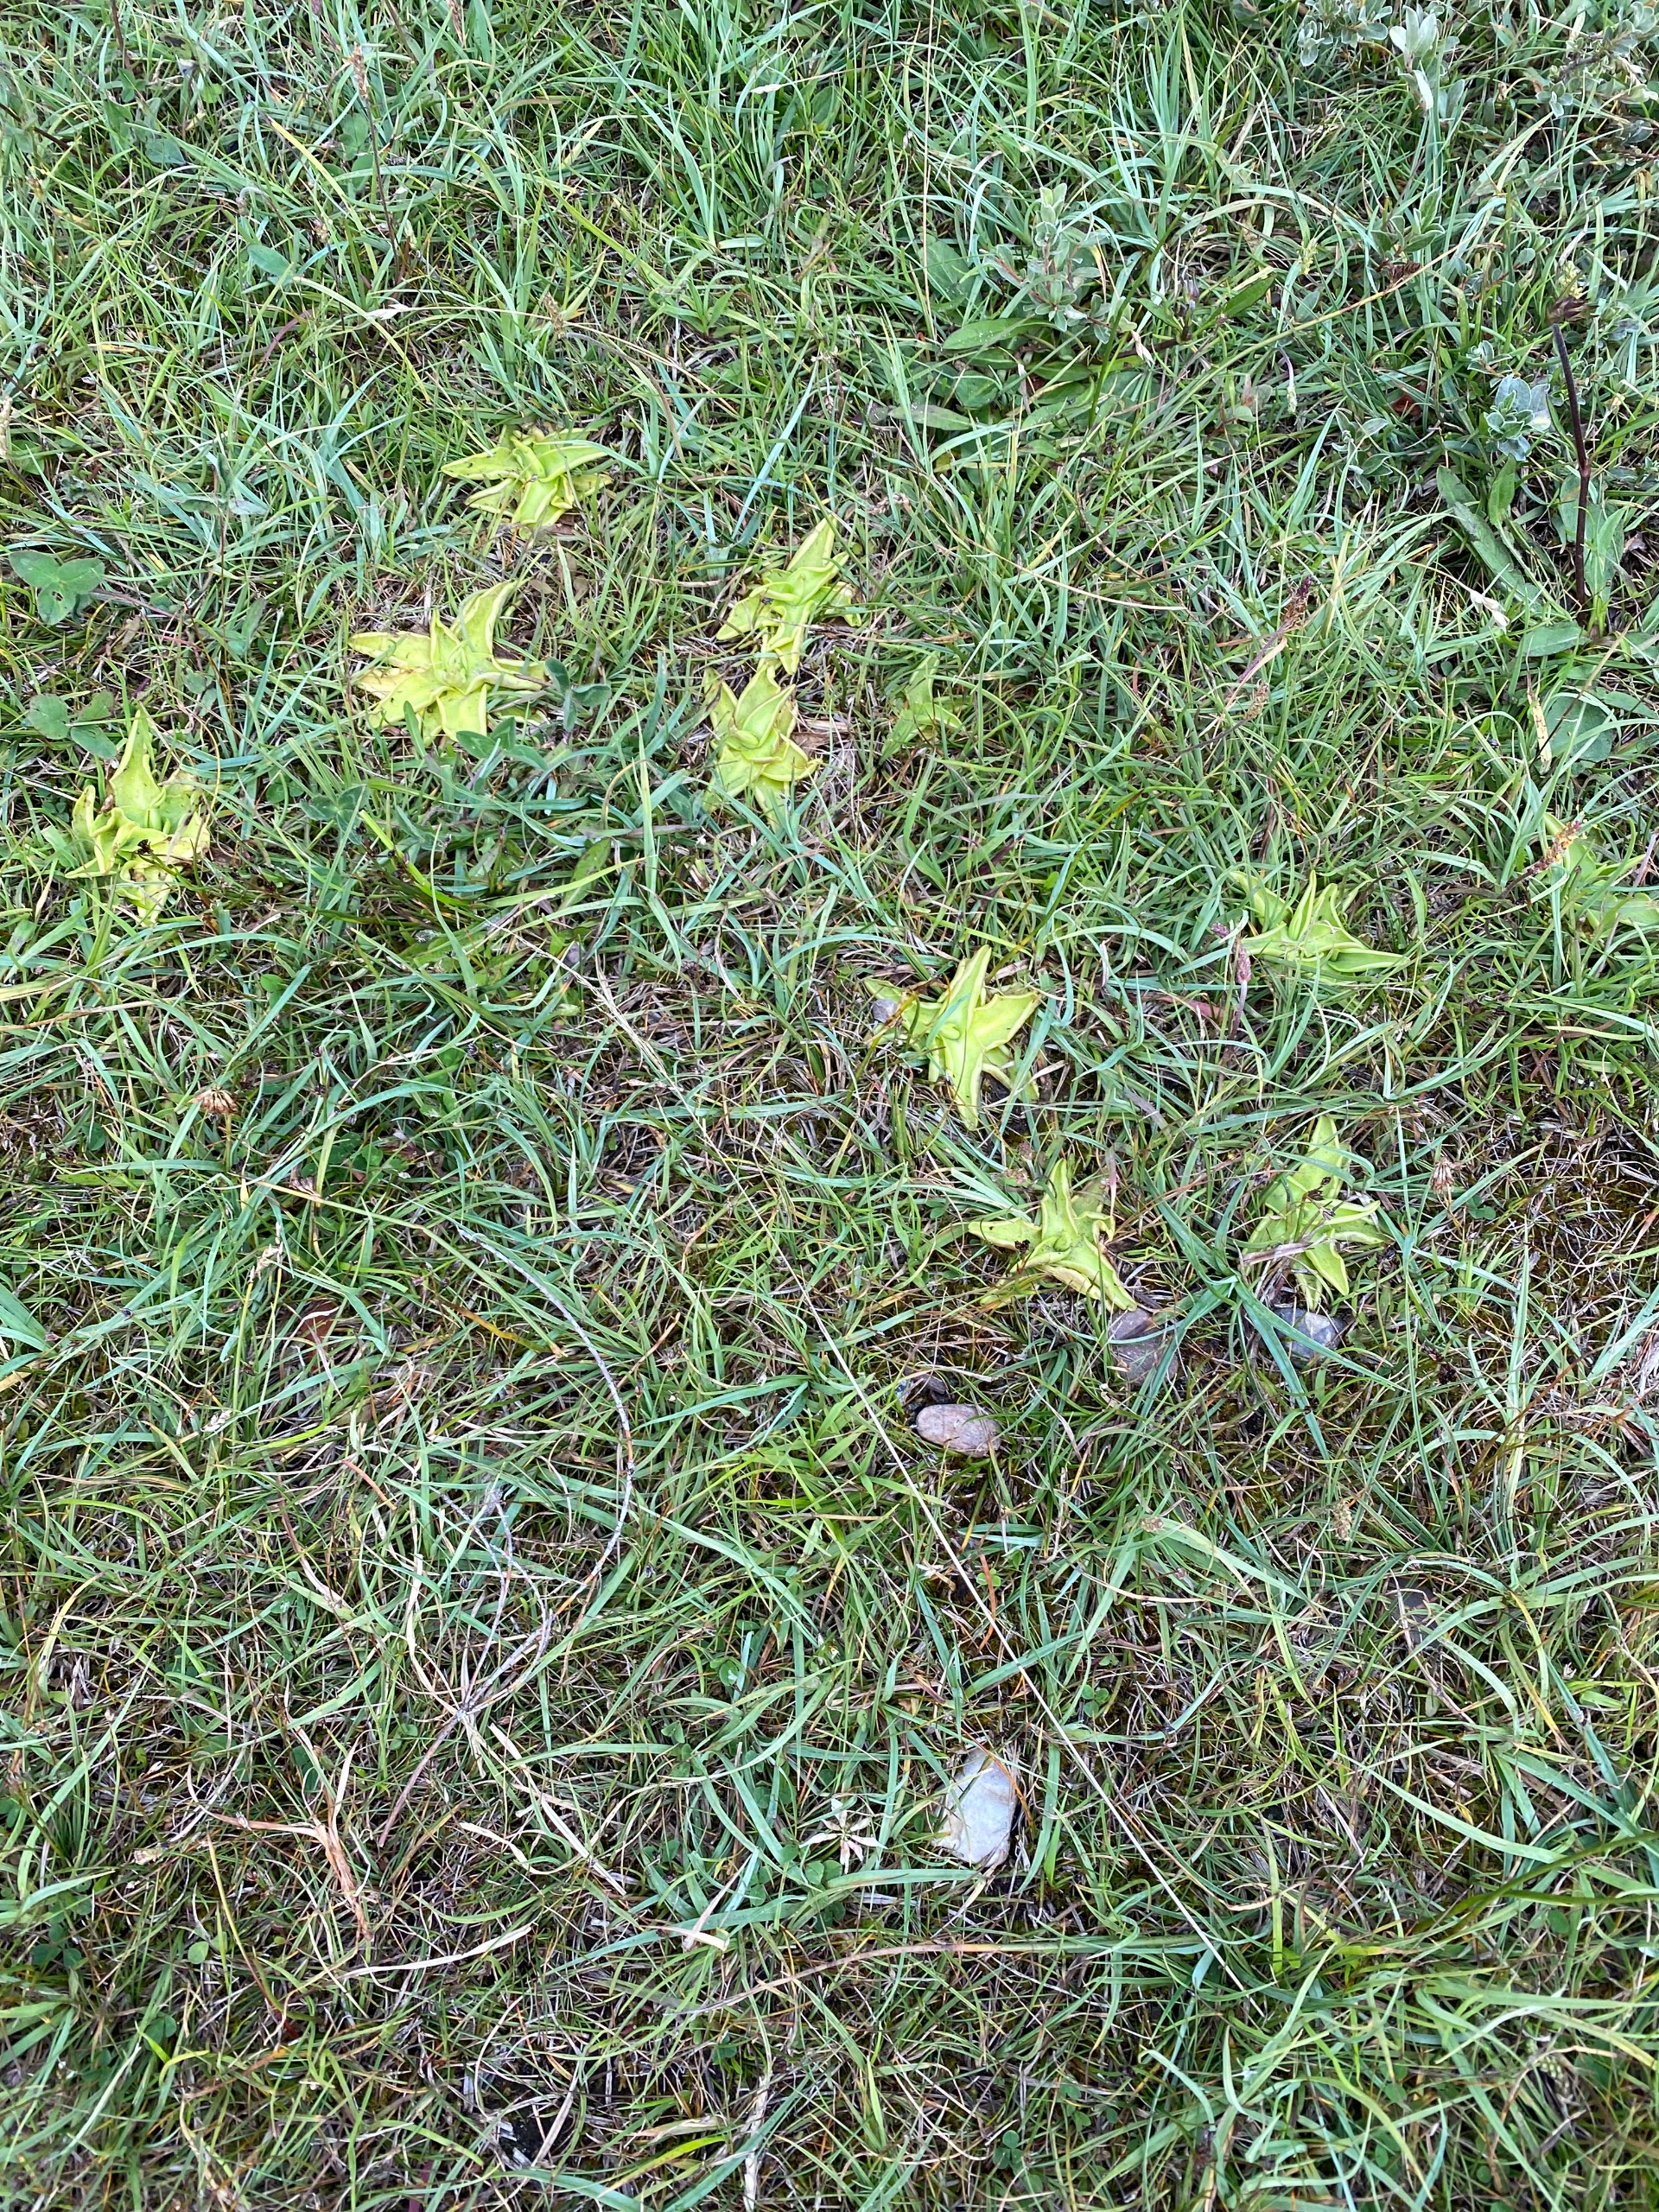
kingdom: Plantae
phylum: Tracheophyta
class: Magnoliopsida
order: Lamiales
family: Lentibulariaceae
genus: Pinguicula
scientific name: Pinguicula vulgaris
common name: Vibefedt
